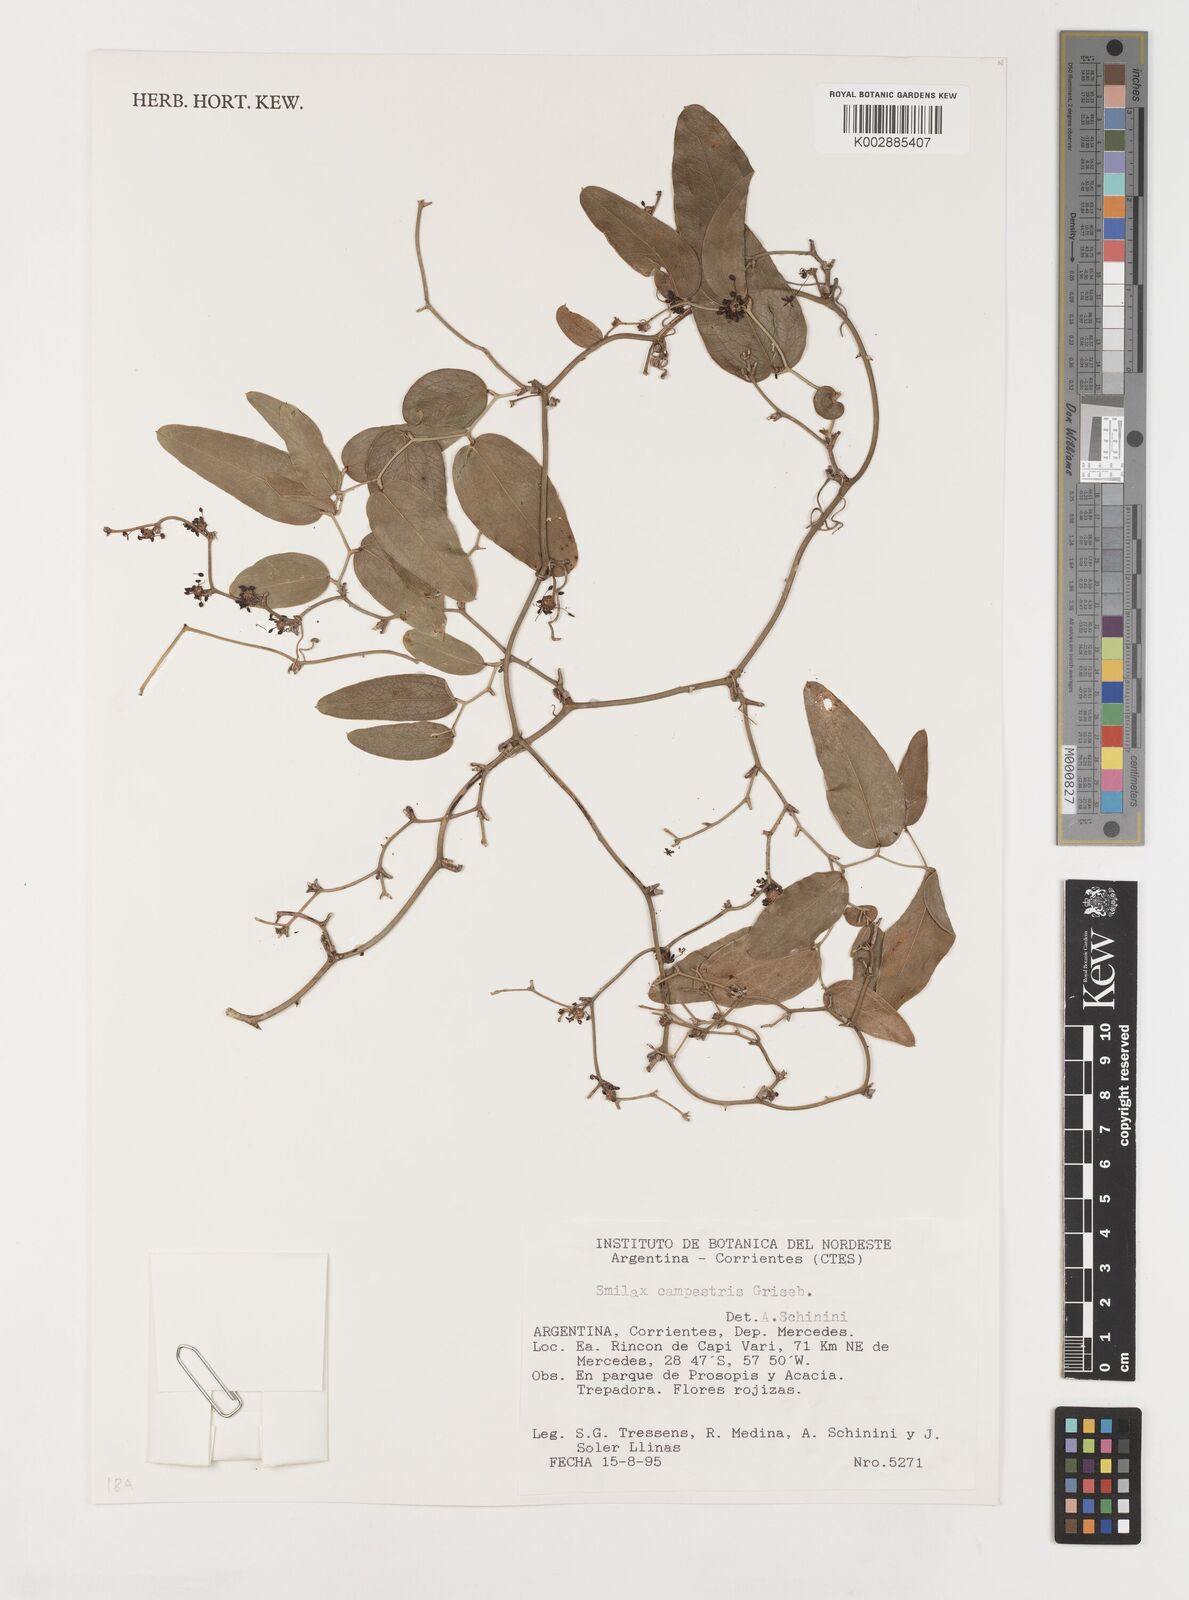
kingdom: Plantae
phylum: Tracheophyta
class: Liliopsida
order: Liliales
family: Smilacaceae
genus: Smilax
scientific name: Smilax campestris
